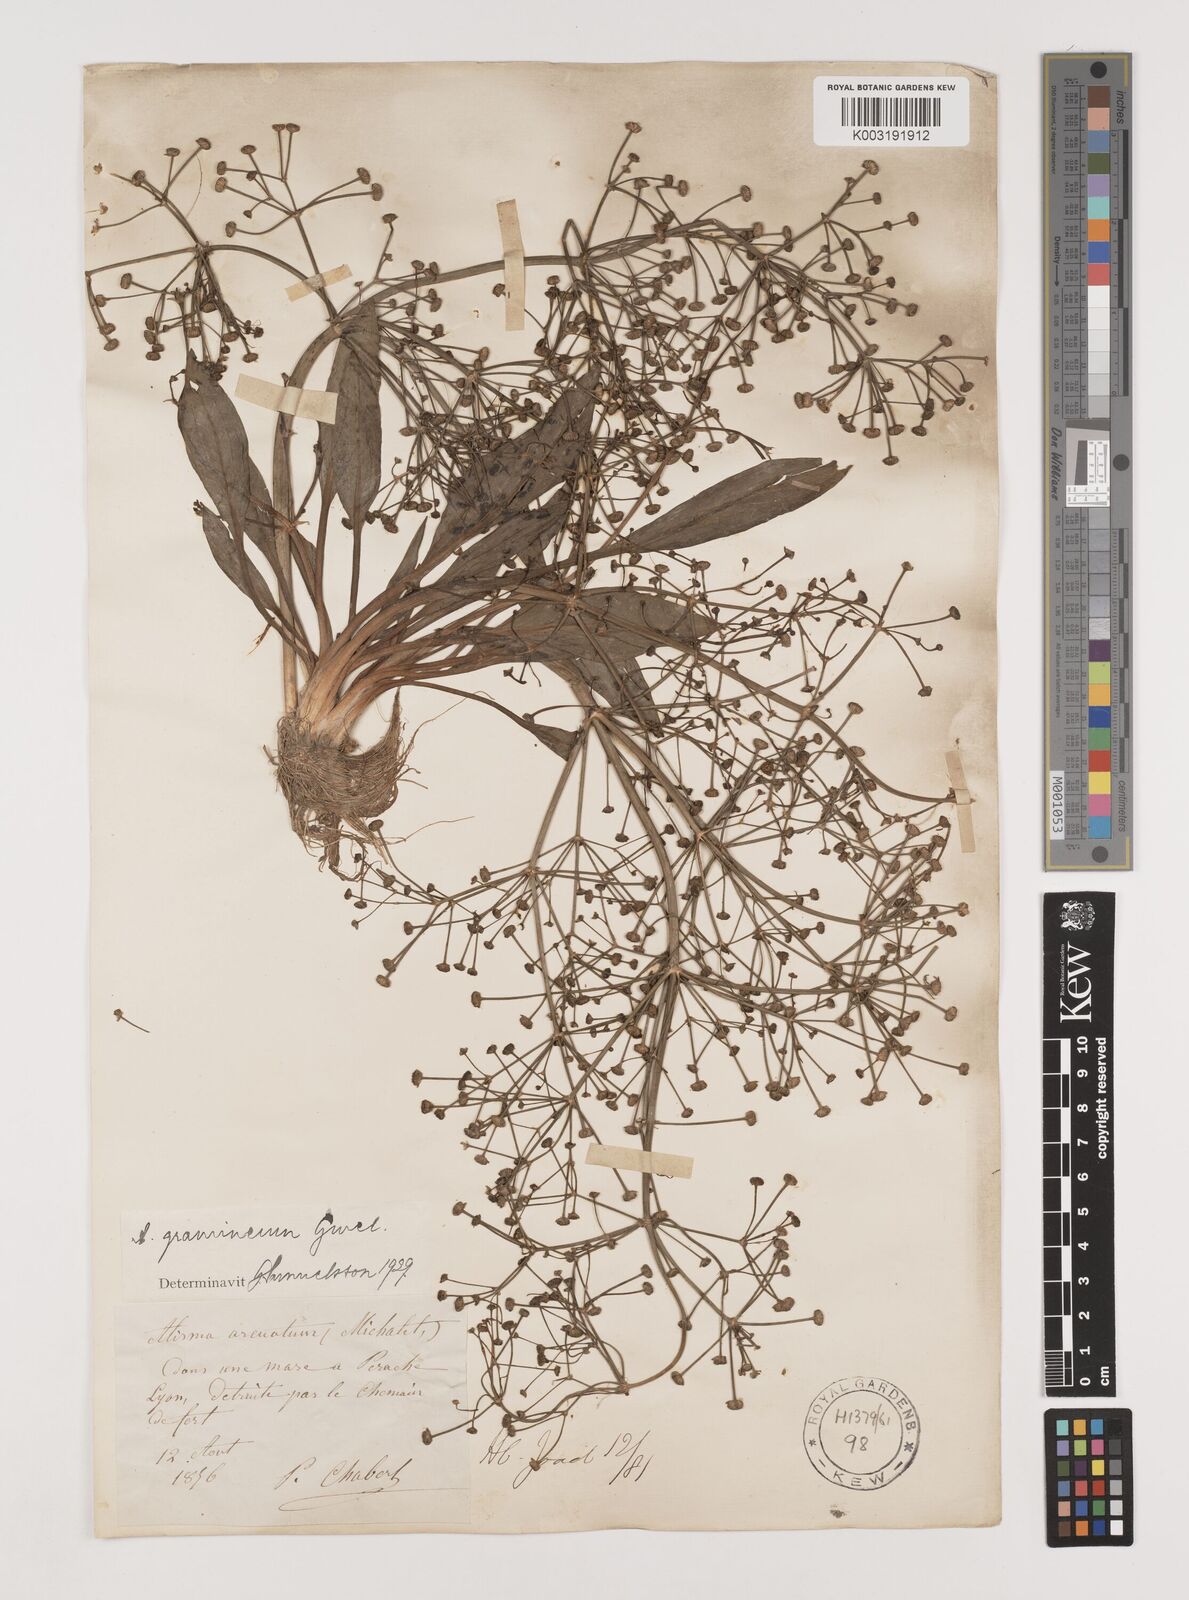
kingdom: Plantae
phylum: Tracheophyta
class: Liliopsida
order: Alismatales
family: Alismataceae
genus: Alisma
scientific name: Alisma gramineum
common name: Ribbon-leaved water-plantain
